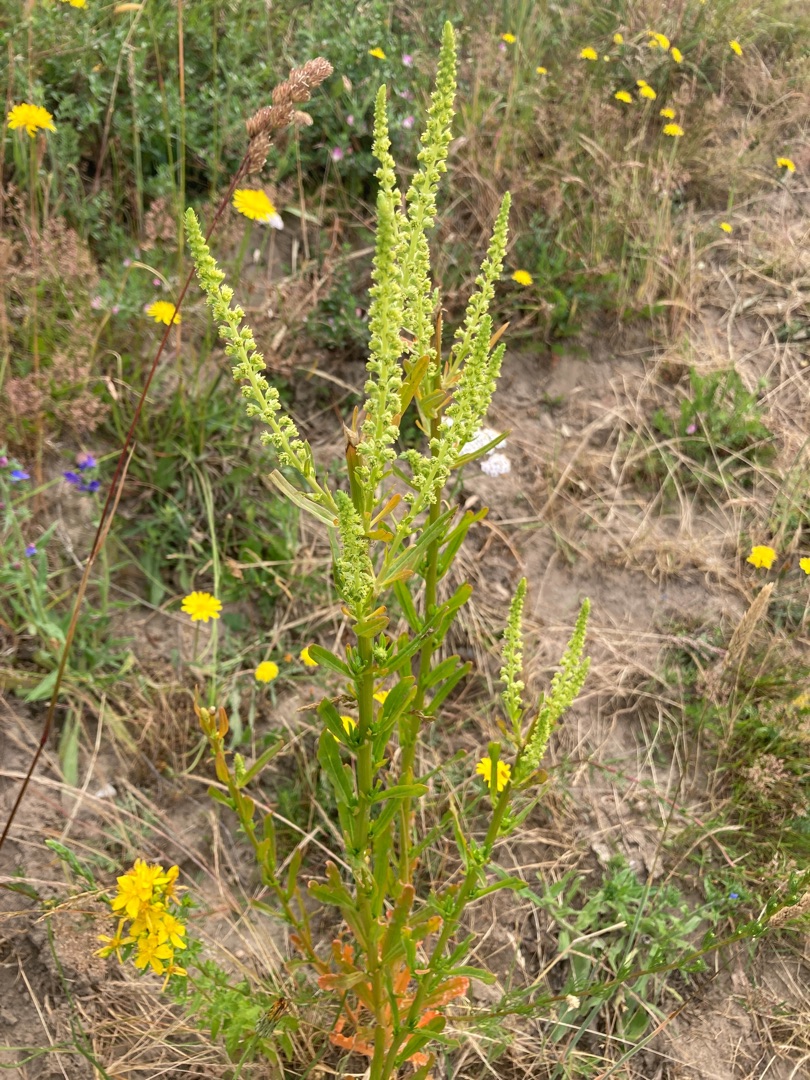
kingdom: Plantae
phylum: Tracheophyta
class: Magnoliopsida
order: Brassicales
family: Resedaceae
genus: Reseda
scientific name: Reseda luteola
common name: Farve-reseda
